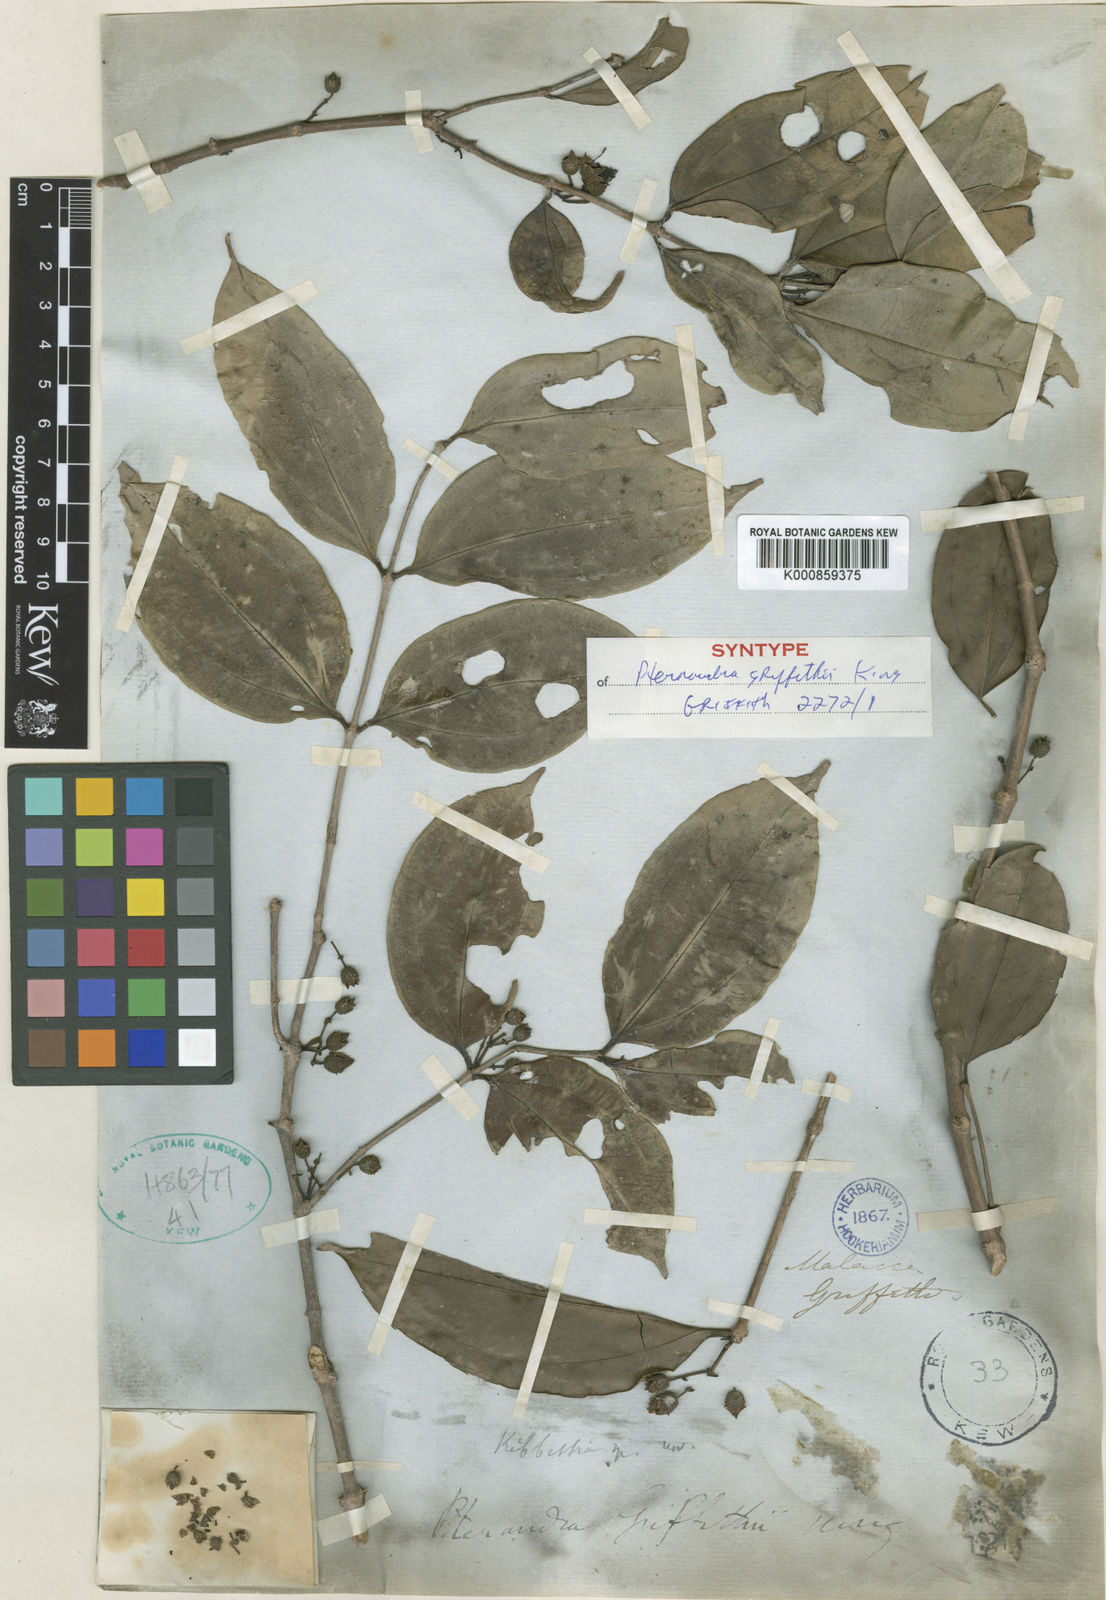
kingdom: Plantae
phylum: Tracheophyta
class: Magnoliopsida
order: Myrtales
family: Melastomataceae
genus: Pternandra
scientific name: Pternandra tuberculata
